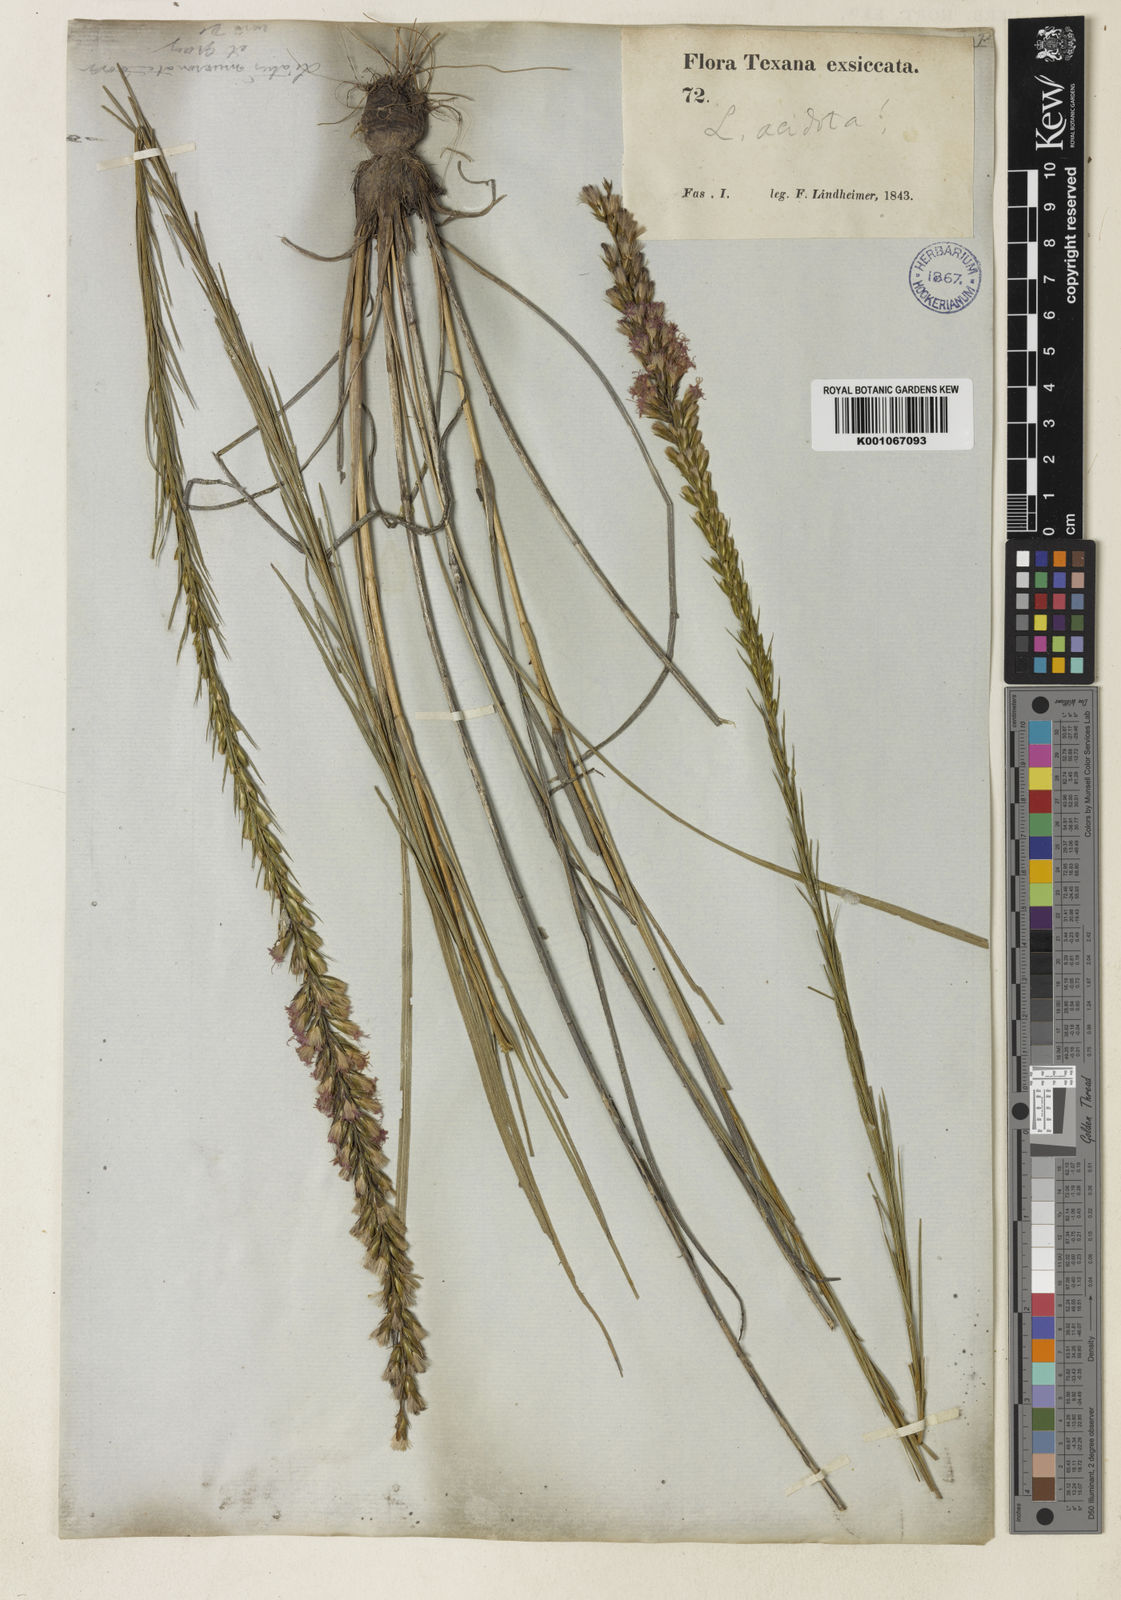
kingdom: Plantae
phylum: Tracheophyta
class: Magnoliopsida
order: Asterales
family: Asteraceae
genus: Liatris
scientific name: Liatris acidota
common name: Gulf coast gayfeather
